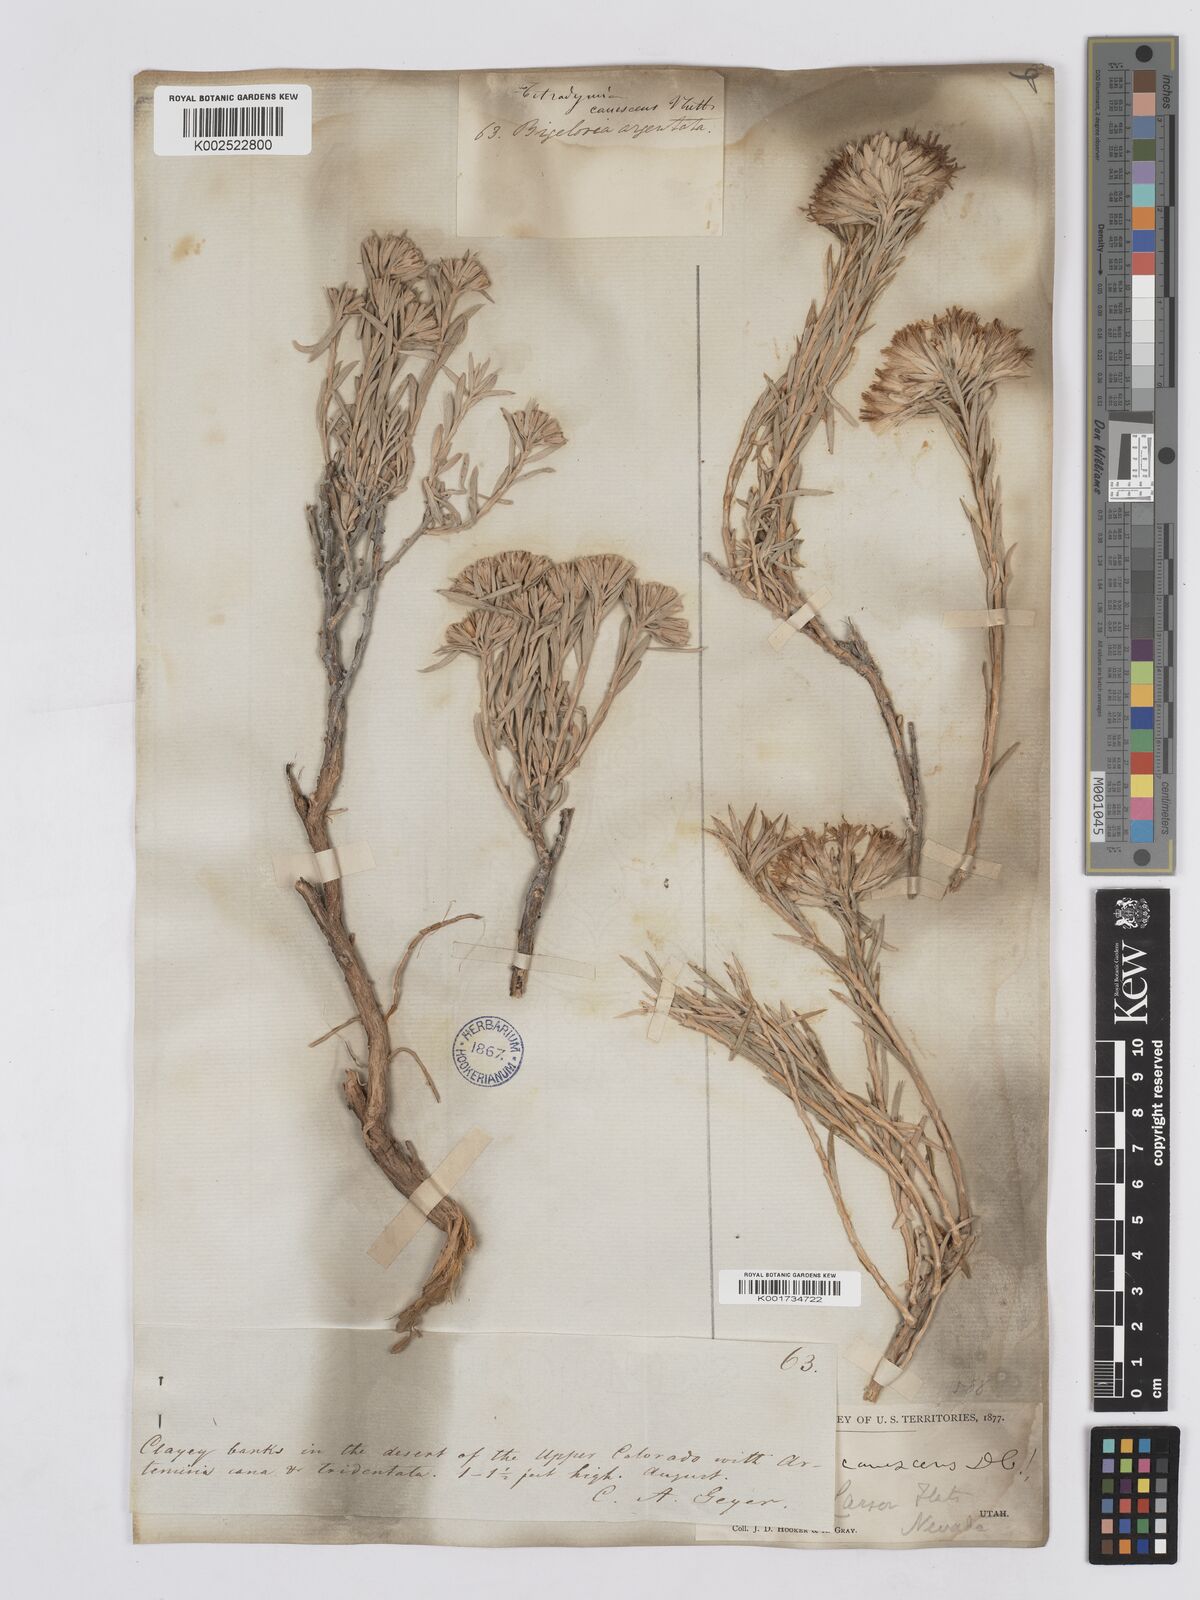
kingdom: Plantae
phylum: Tracheophyta
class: Magnoliopsida
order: Asterales
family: Asteraceae
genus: Tetradymia
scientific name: Tetradymia canescens
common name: Spineless horsebrush
